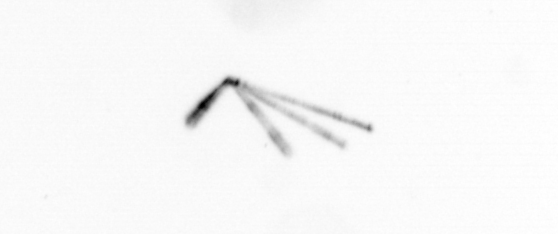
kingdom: Chromista
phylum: Ochrophyta
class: Bacillariophyceae
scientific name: Bacillariophyceae
